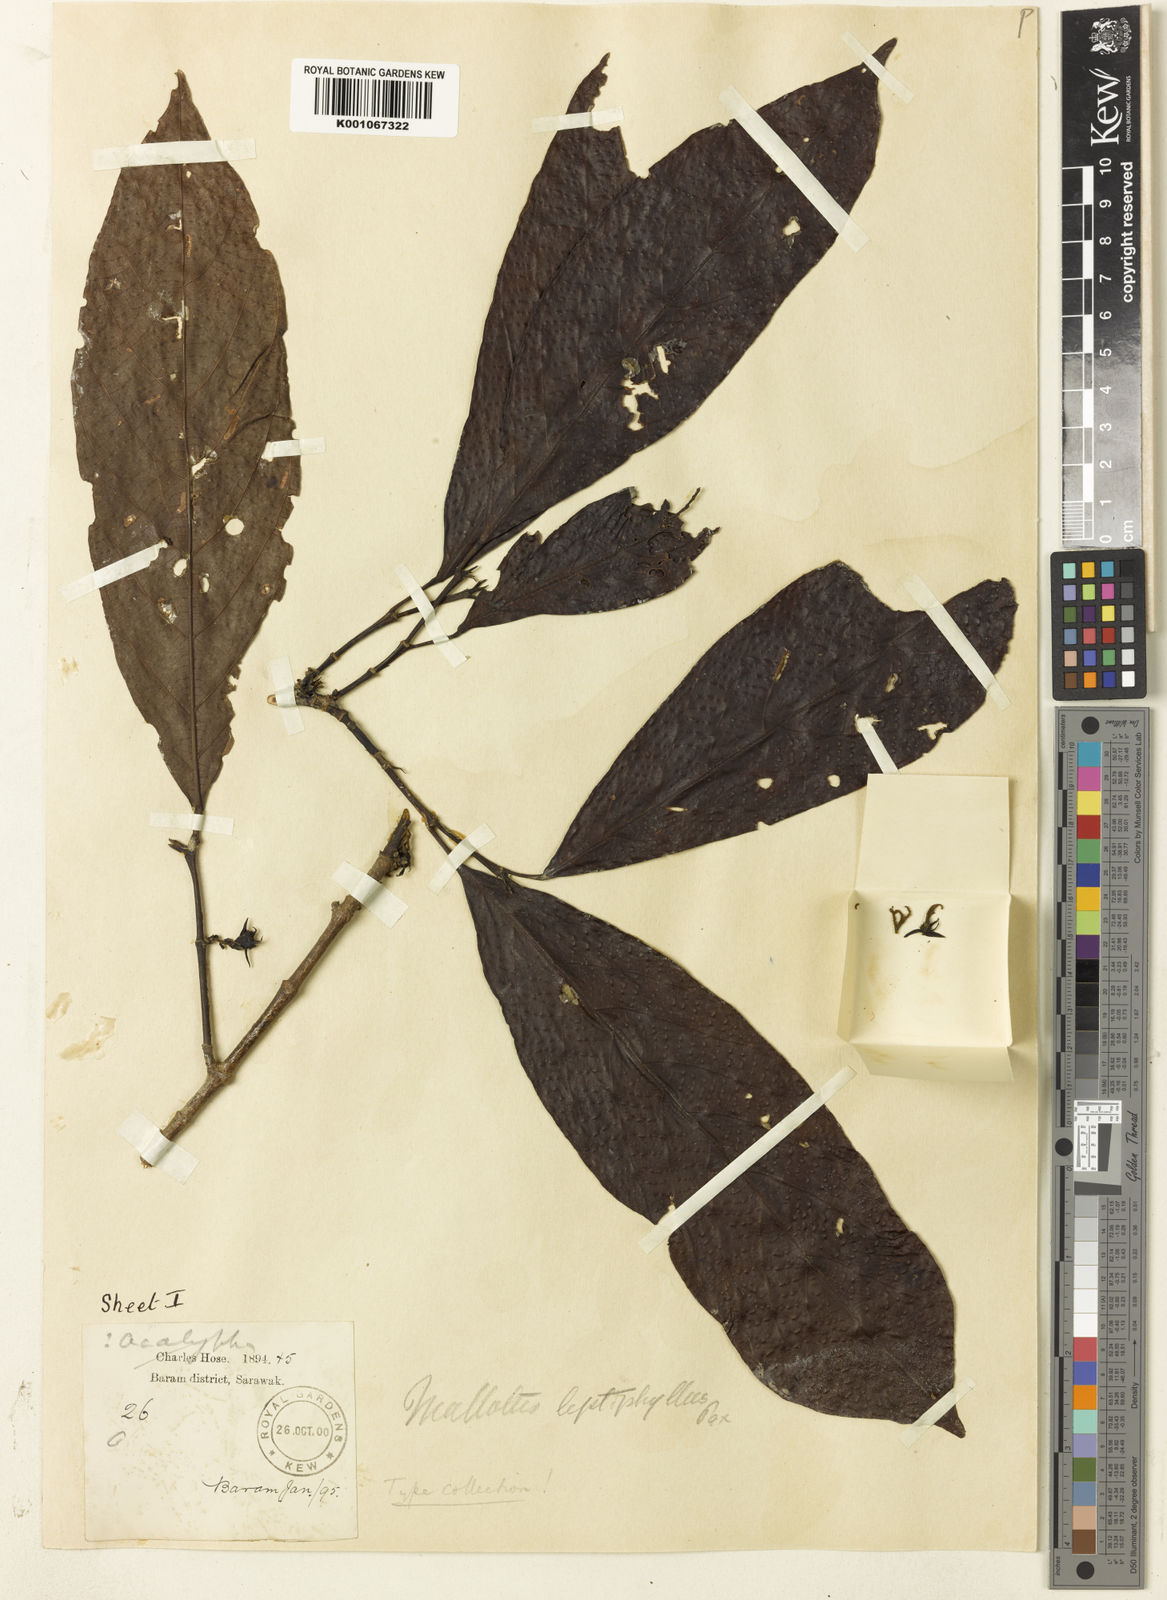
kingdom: Plantae
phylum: Tracheophyta
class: Magnoliopsida
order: Malpighiales
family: Euphorbiaceae
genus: Hancea
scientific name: Hancea penangensis
